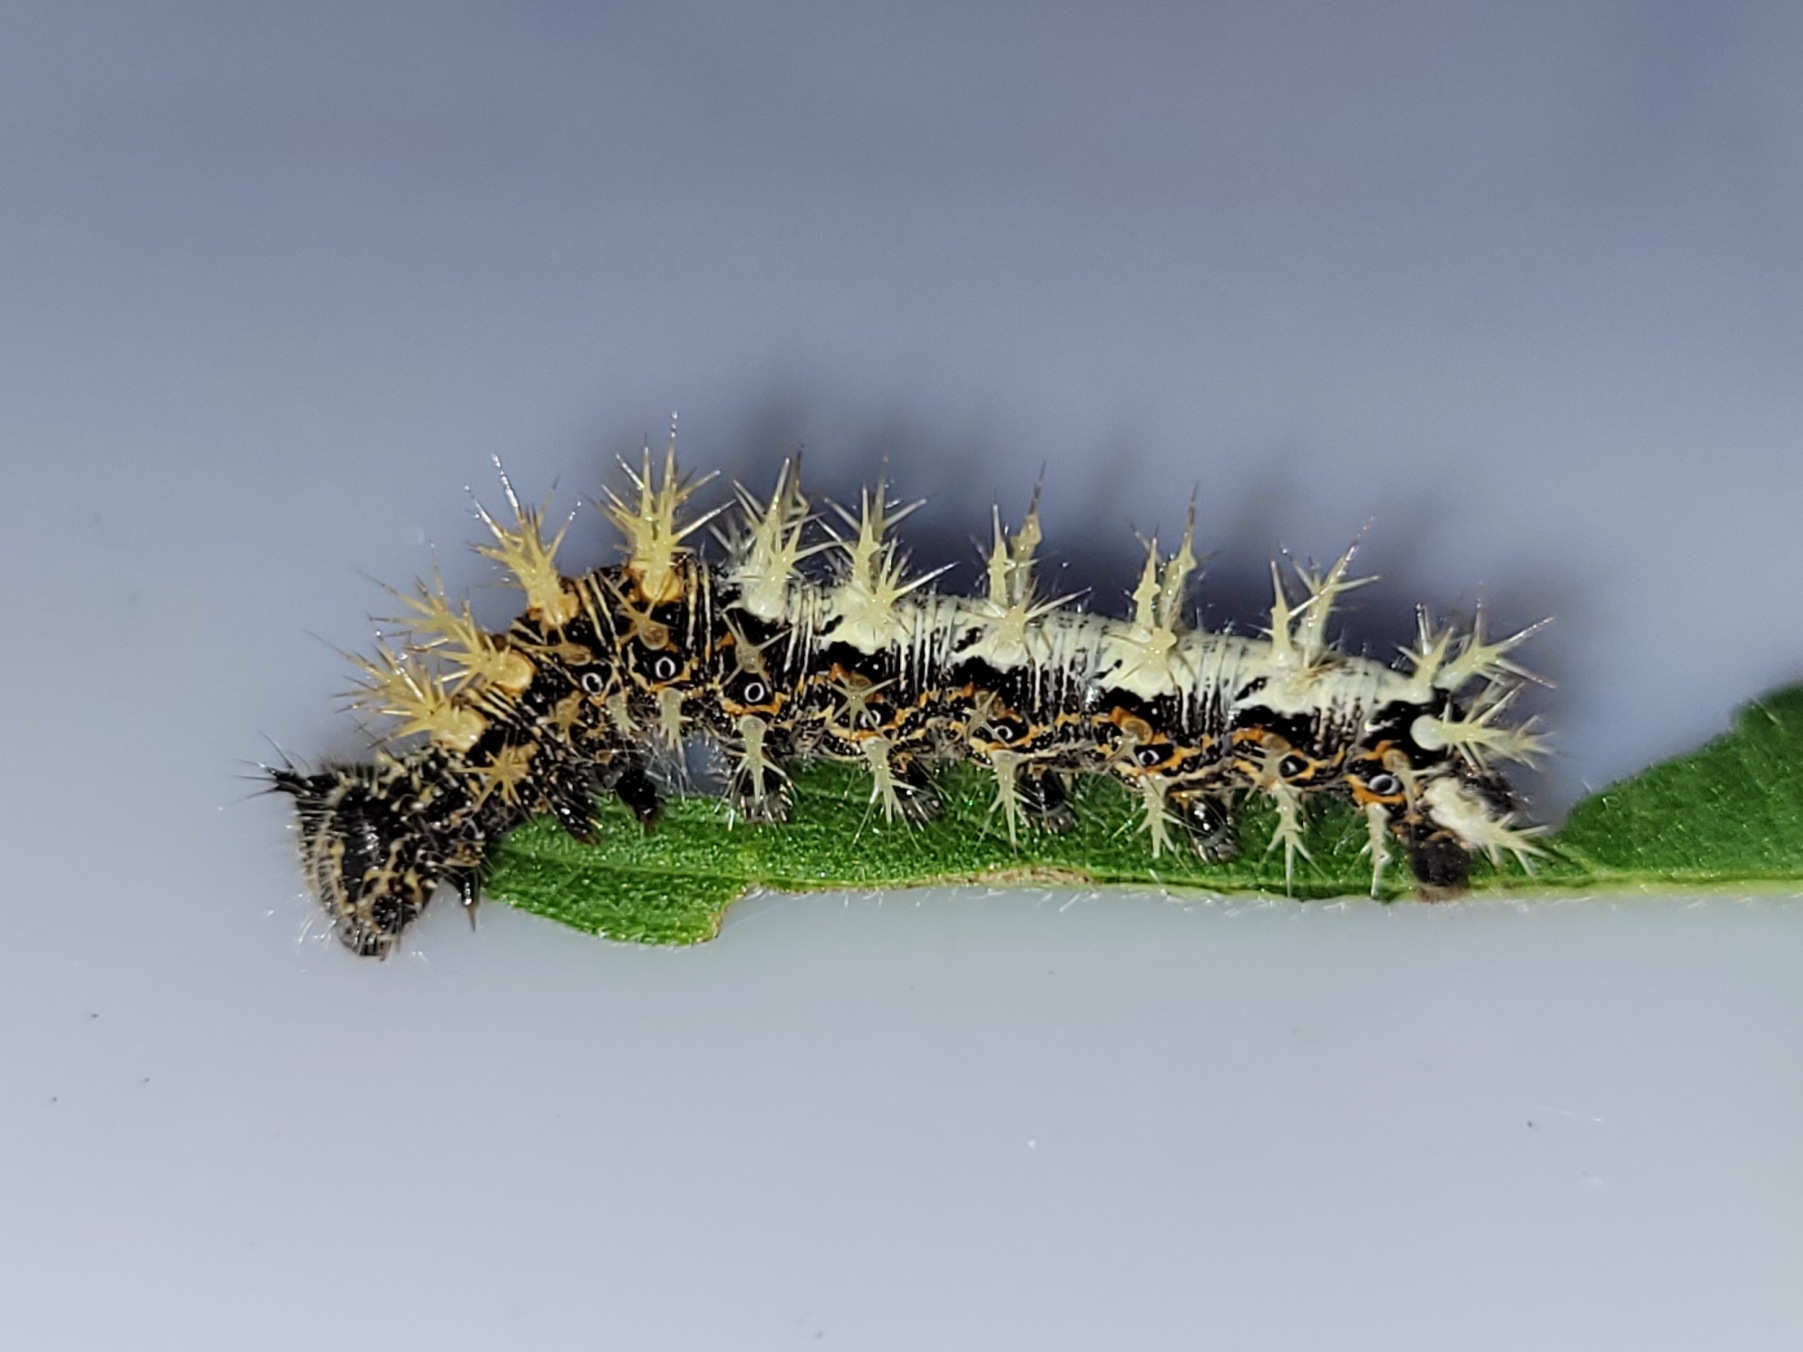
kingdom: Animalia
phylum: Arthropoda
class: Insecta
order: Lepidoptera
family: Nymphalidae
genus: Polygonia
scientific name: Polygonia c-album
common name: Det hvide C
